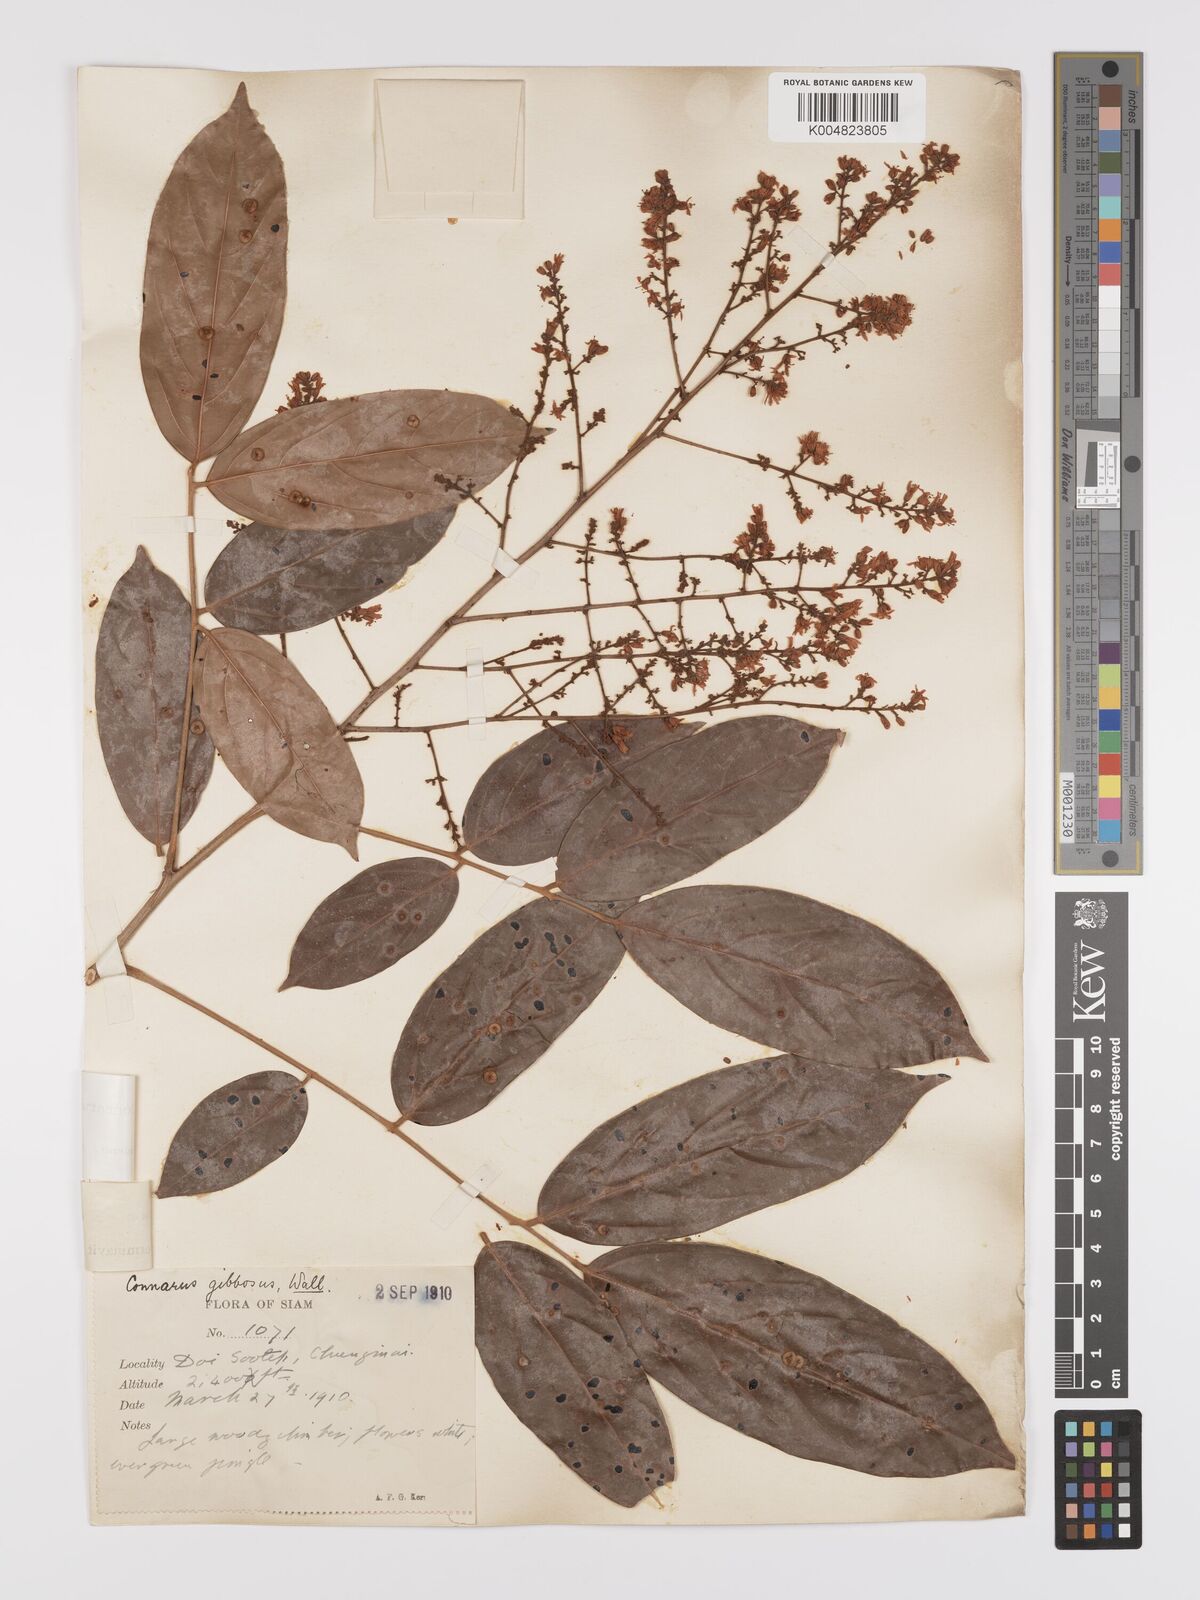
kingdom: Plantae
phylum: Tracheophyta
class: Magnoliopsida
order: Oxalidales
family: Connaraceae
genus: Connarus
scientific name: Connarus semidecandrus
